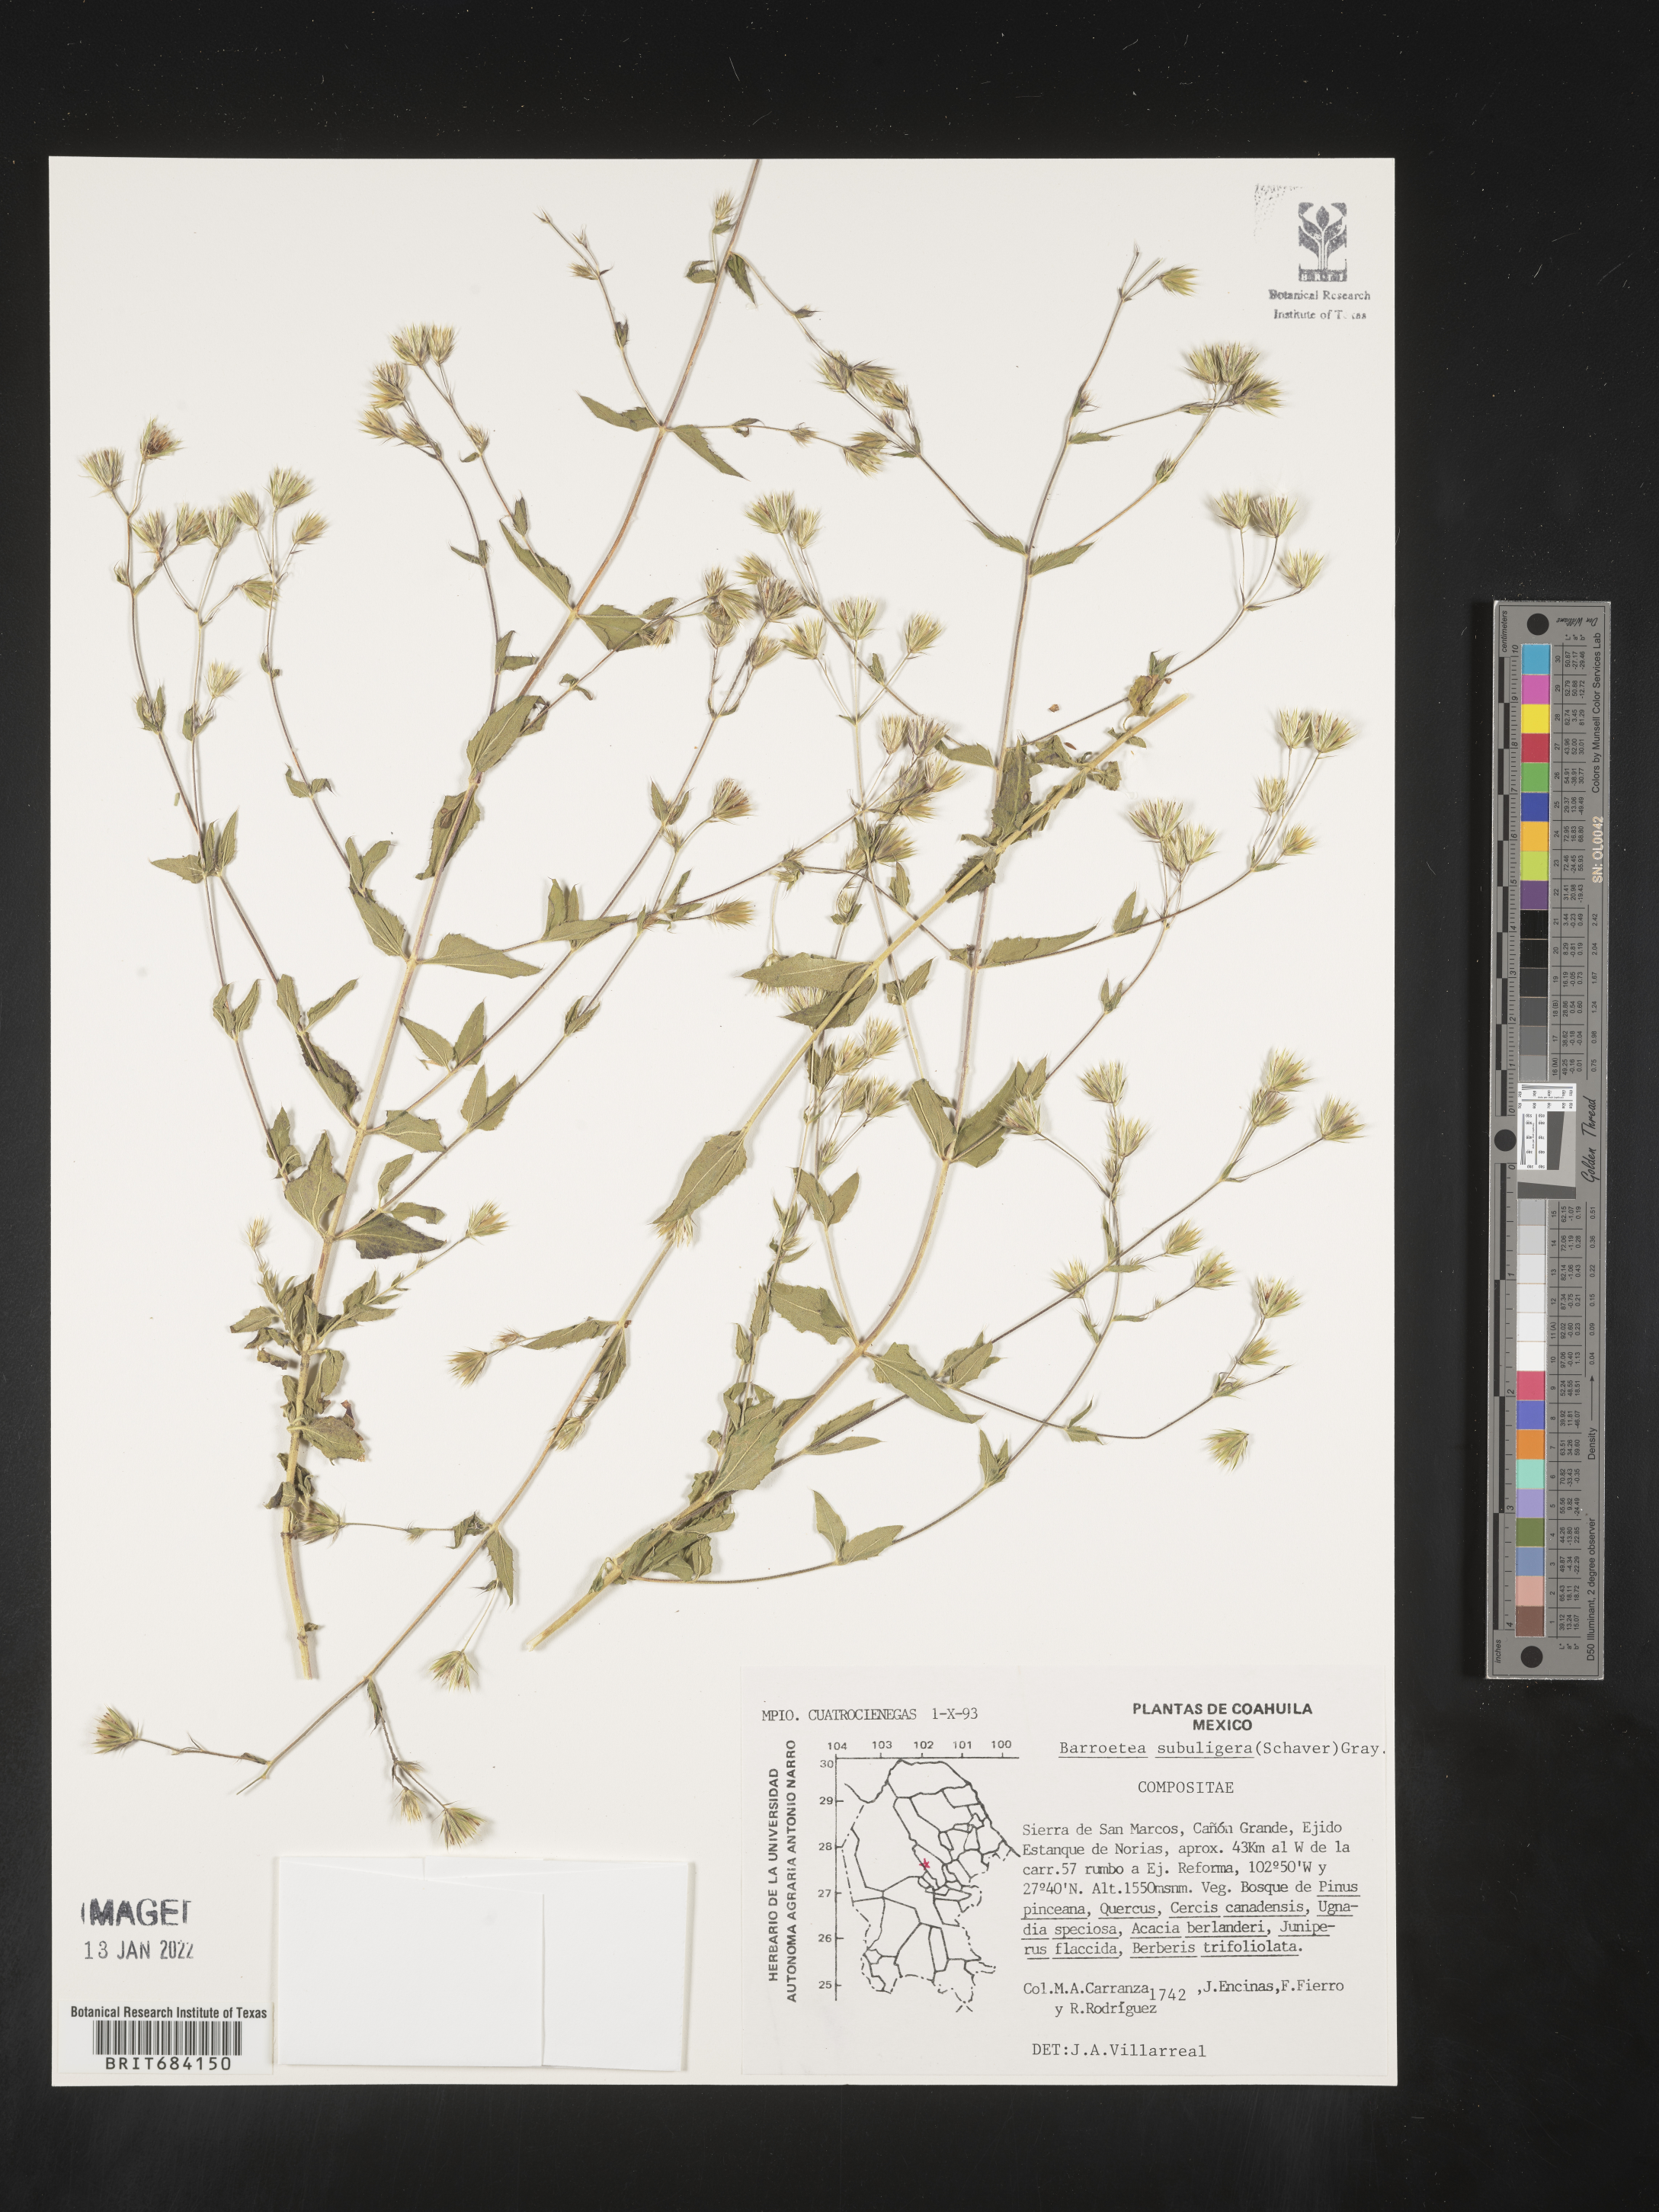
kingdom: Plantae
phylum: Tracheophyta
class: Magnoliopsida
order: Asterales
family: Asteraceae
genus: Brickellia
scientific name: Brickellia
